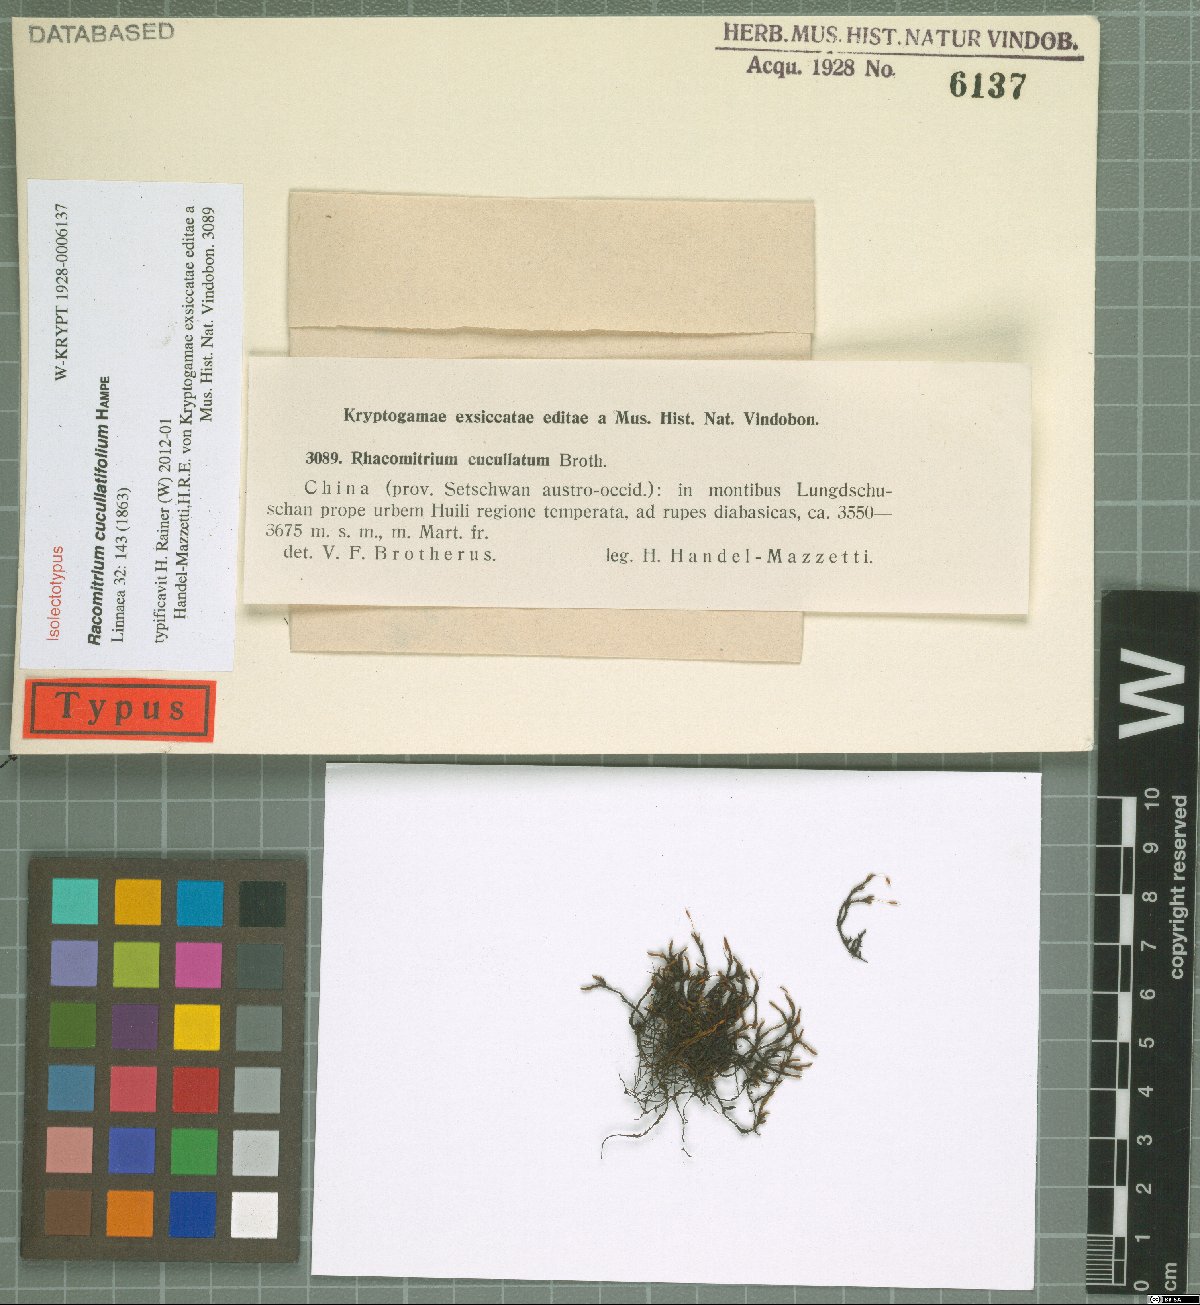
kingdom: Plantae
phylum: Bryophyta
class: Bryopsida
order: Grimmiales
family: Grimmiaceae
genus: Bucklandiella
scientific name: Bucklandiella cucullatula
